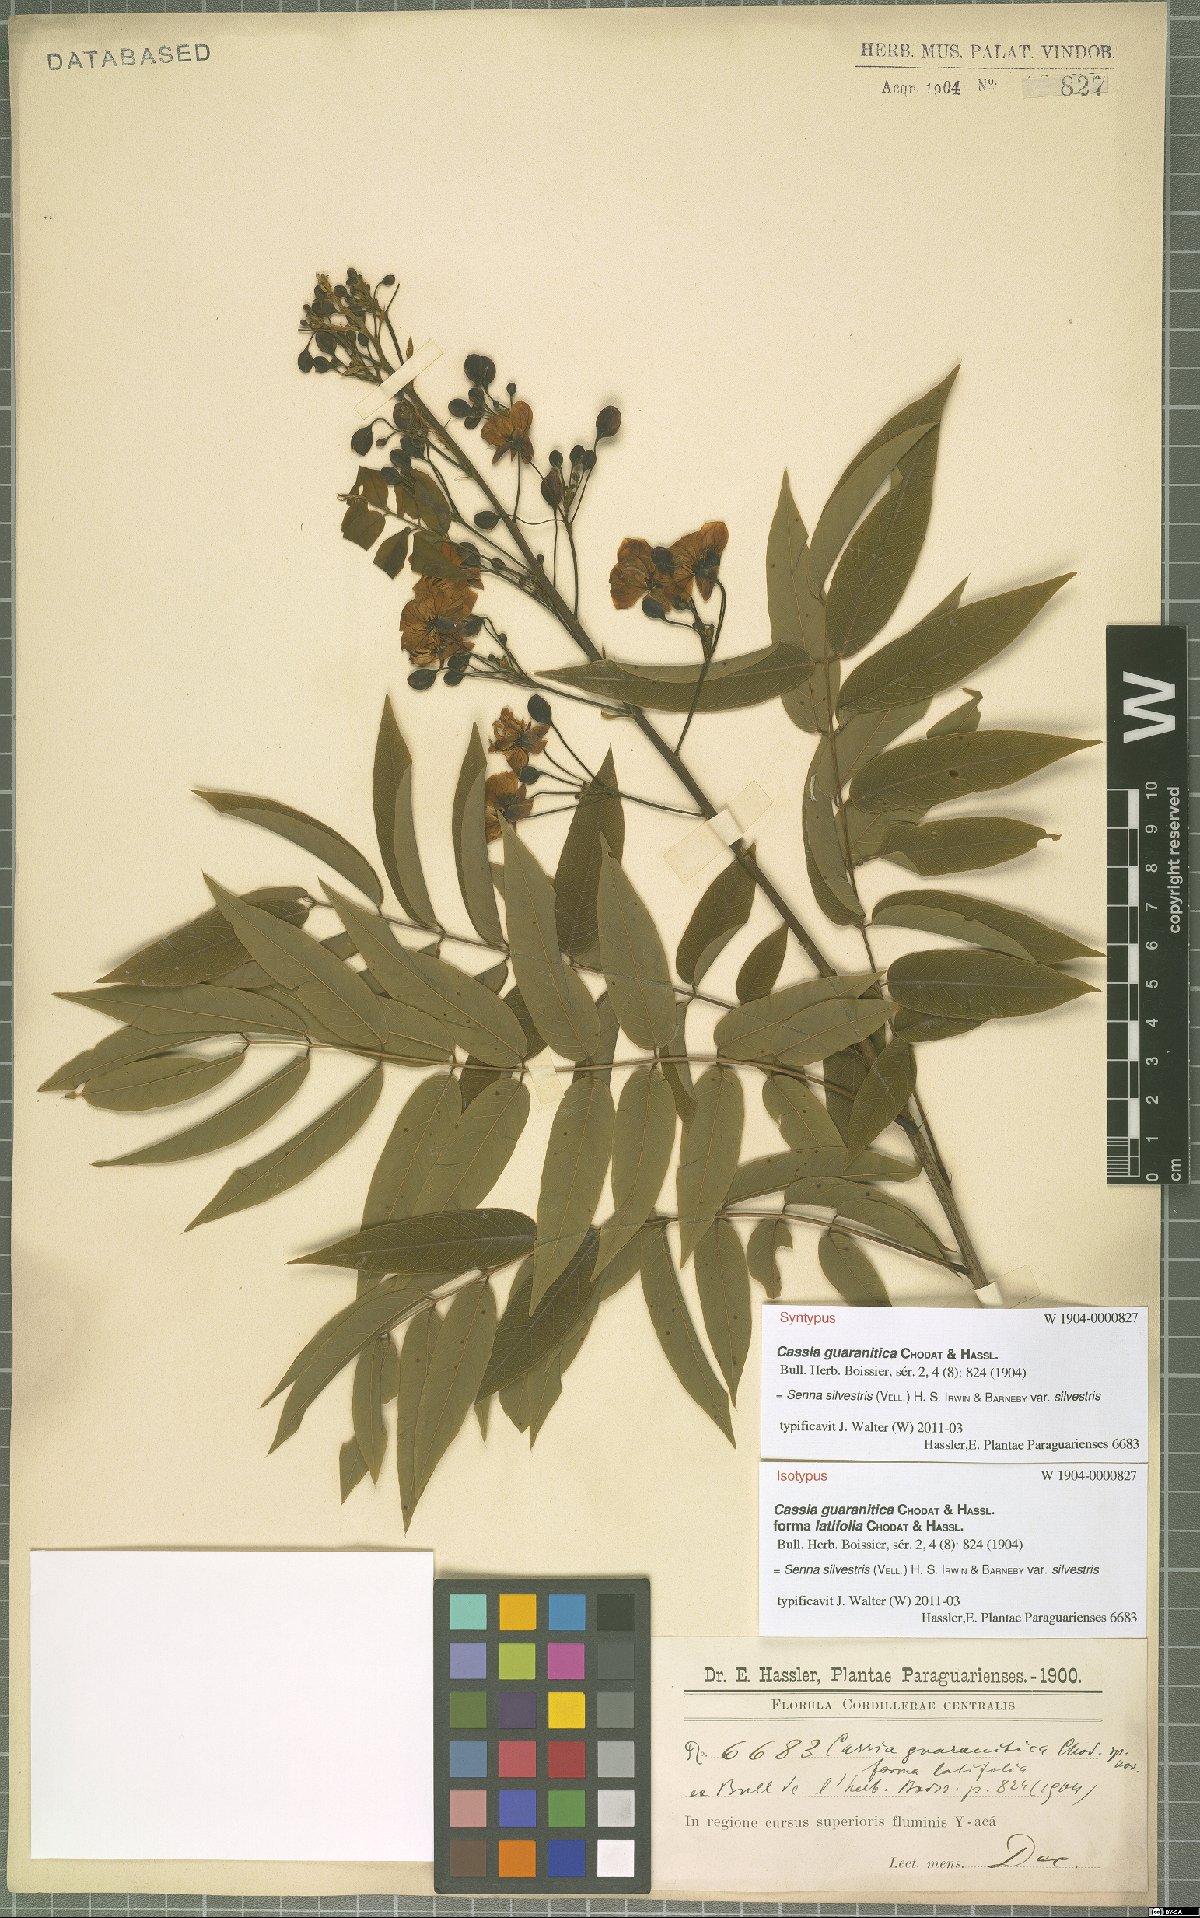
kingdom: Plantae
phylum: Tracheophyta
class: Magnoliopsida
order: Fabales
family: Fabaceae
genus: Senna
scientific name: Senna silvestris
